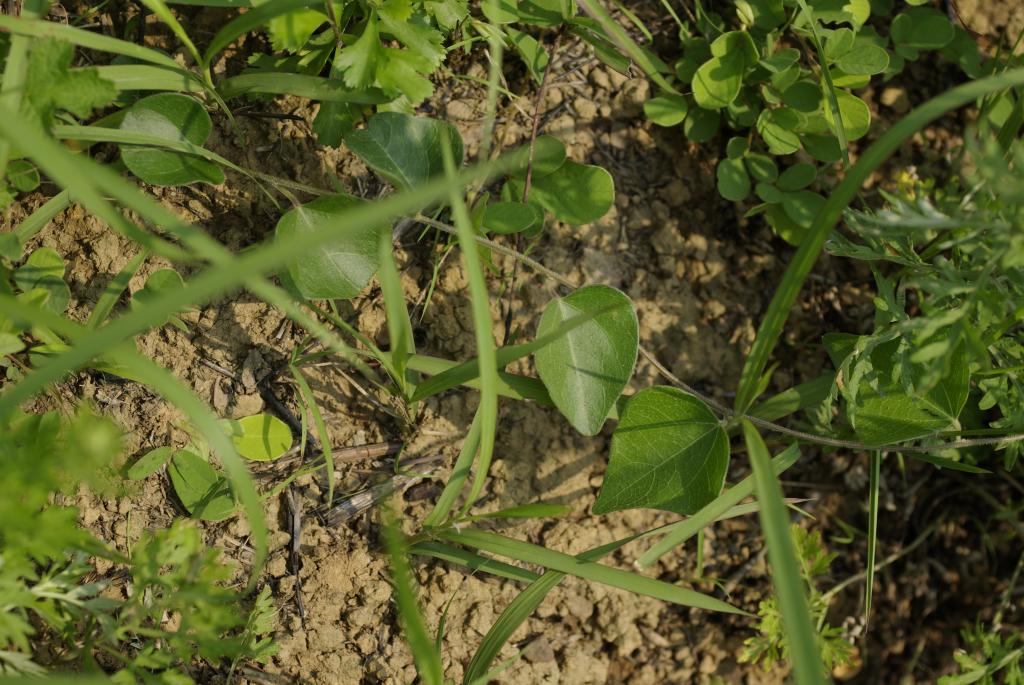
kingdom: Plantae
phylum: Tracheophyta
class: Magnoliopsida
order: Ranunculales
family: Menispermaceae
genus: Cocculus
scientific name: Cocculus orbiculatus
